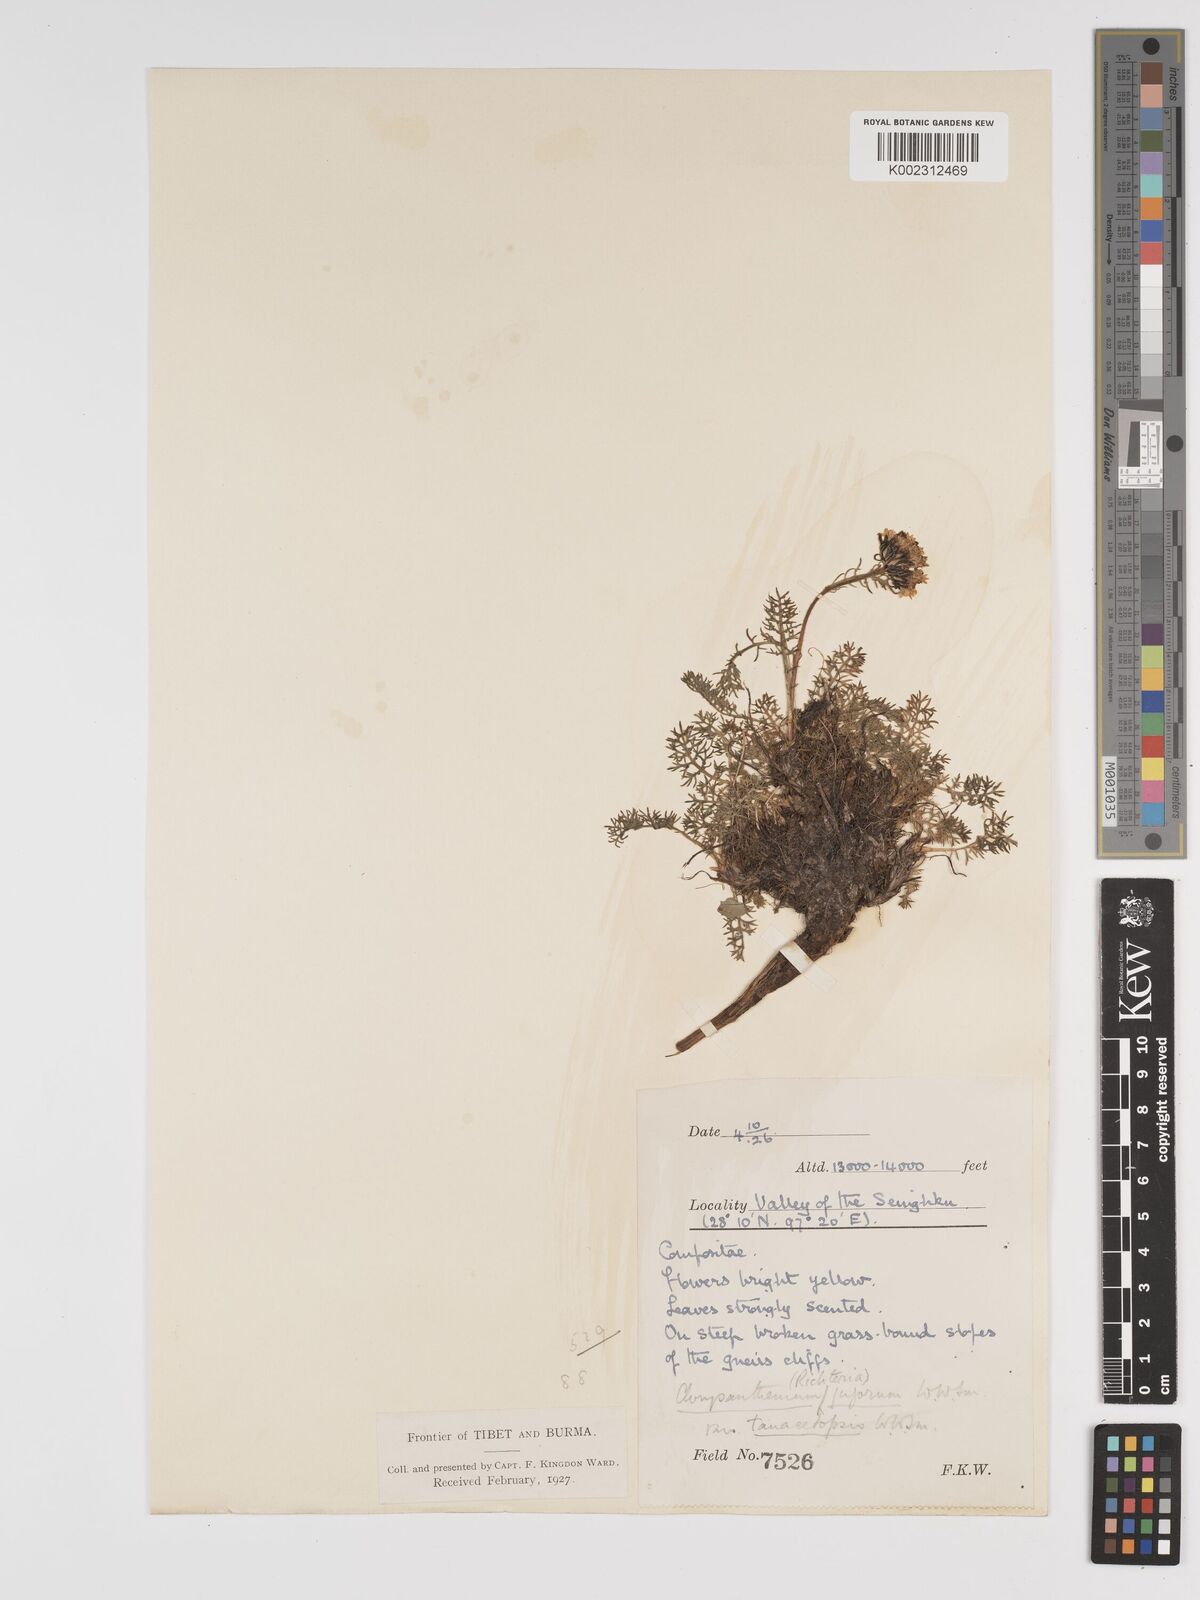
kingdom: Plantae
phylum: Tracheophyta
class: Magnoliopsida
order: Asterales
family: Asteraceae
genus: Tanacetum
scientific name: Tanacetum tatsienense
